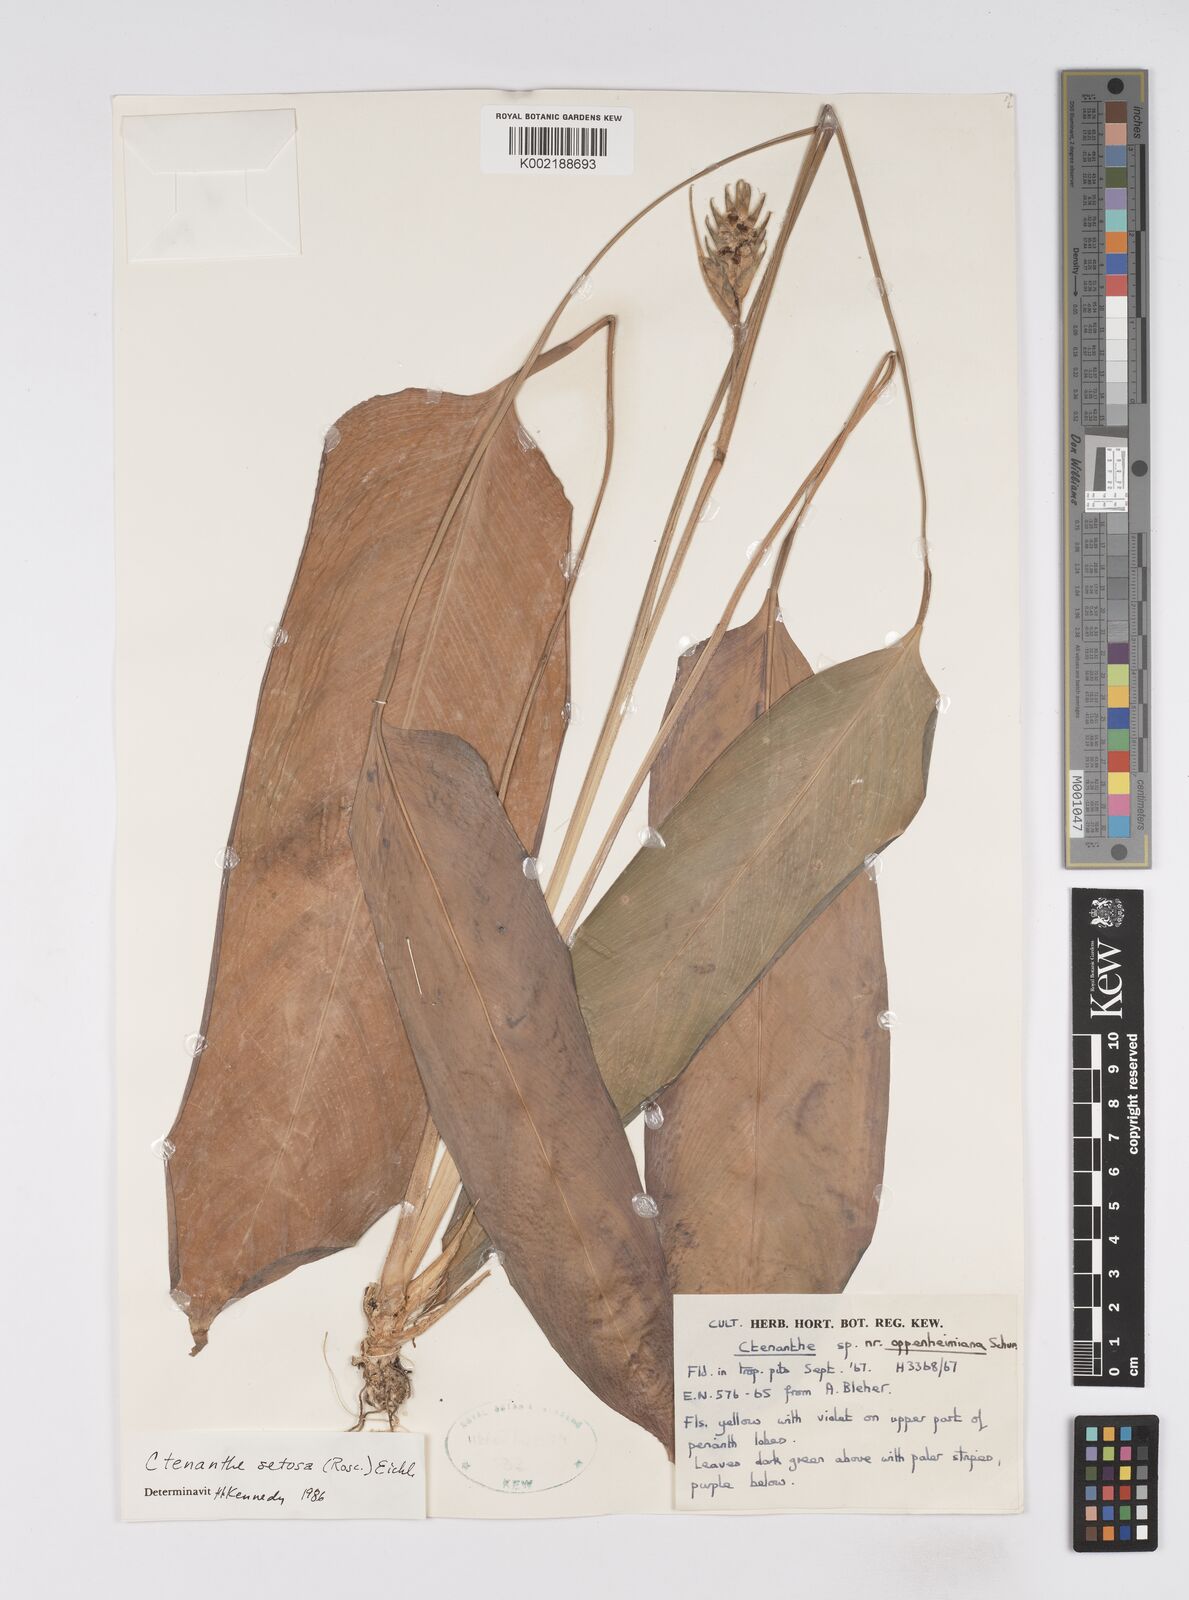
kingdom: Plantae
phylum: Tracheophyta
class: Liliopsida
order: Zingiberales
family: Marantaceae
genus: Ctenanthe
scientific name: Ctenanthe
